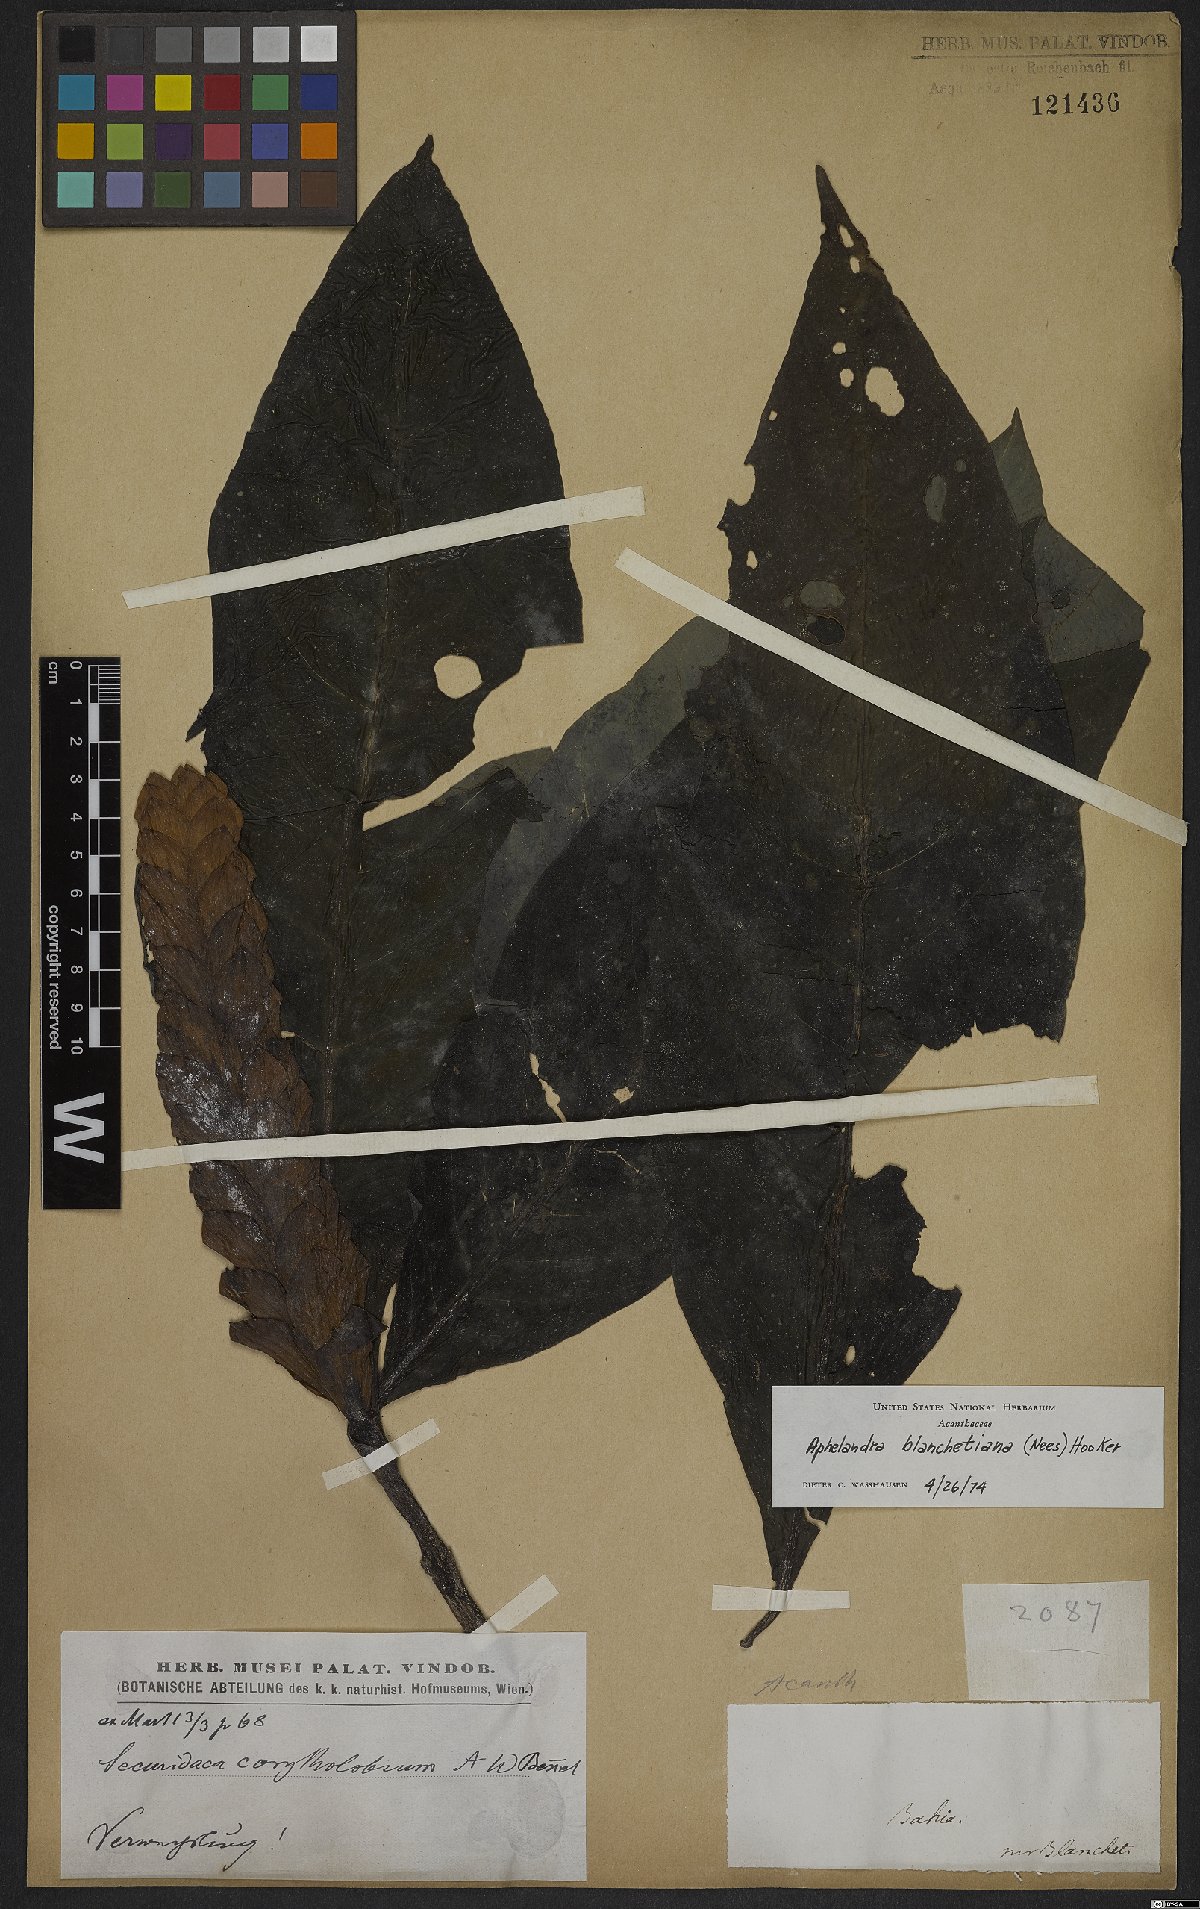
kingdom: Plantae
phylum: Tracheophyta
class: Magnoliopsida
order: Lamiales
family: Acanthaceae
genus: Aphelandra
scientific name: Aphelandra blanchetiana
